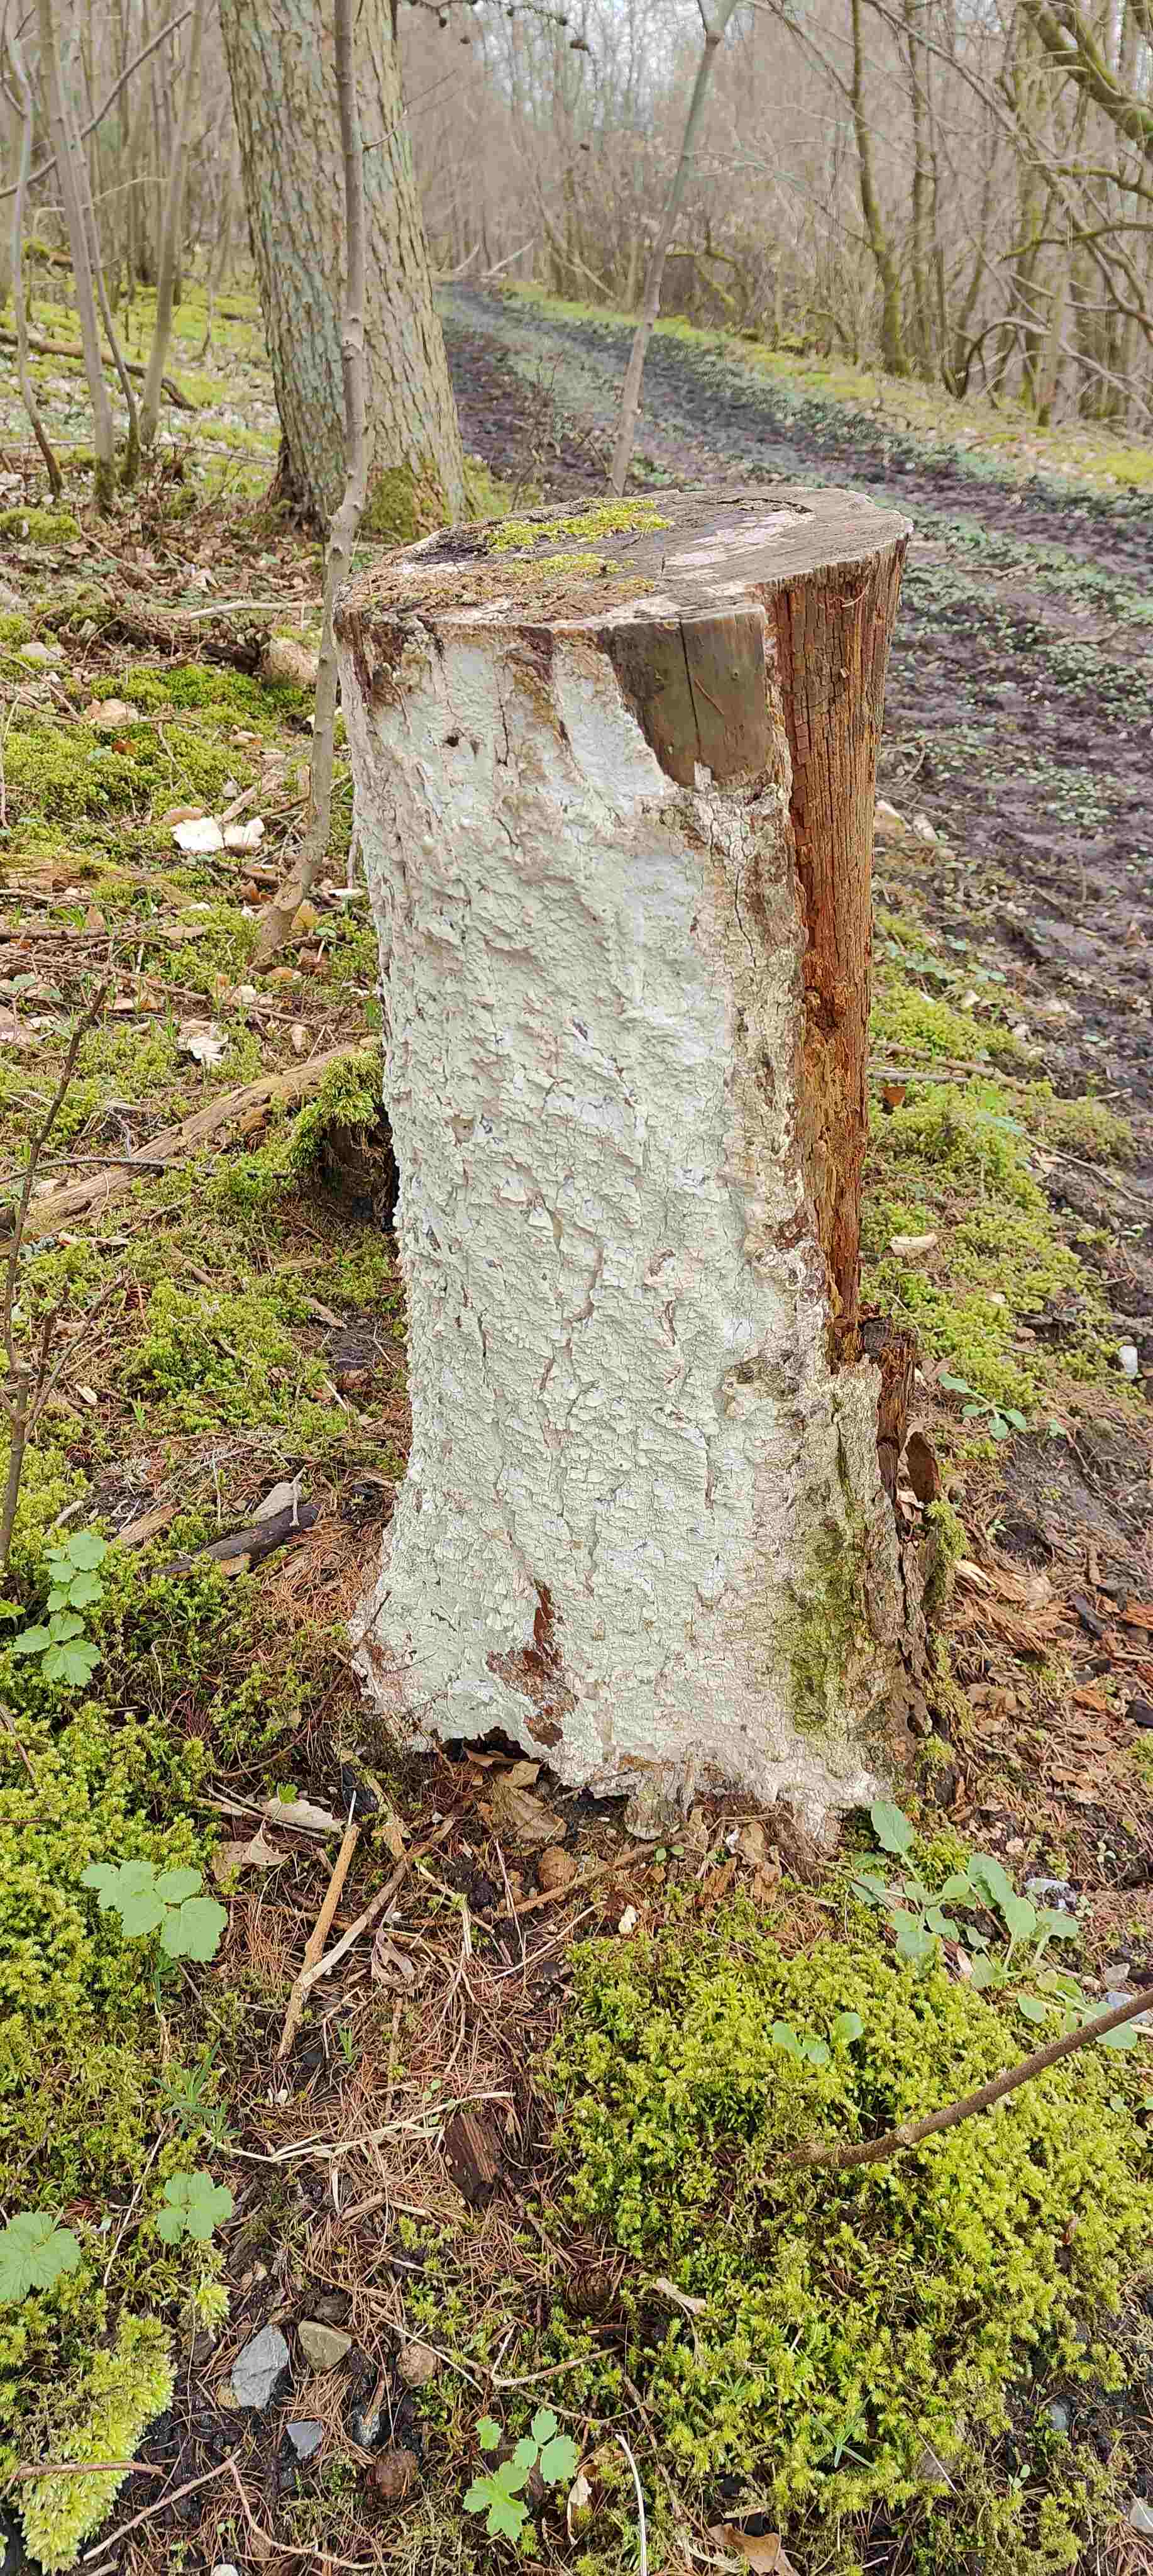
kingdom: Fungi
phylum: Basidiomycota
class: Agaricomycetes
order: Polyporales
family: Fomitopsidaceae
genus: Daedalea
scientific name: Daedalea xantha
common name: gul sejporesvamp
